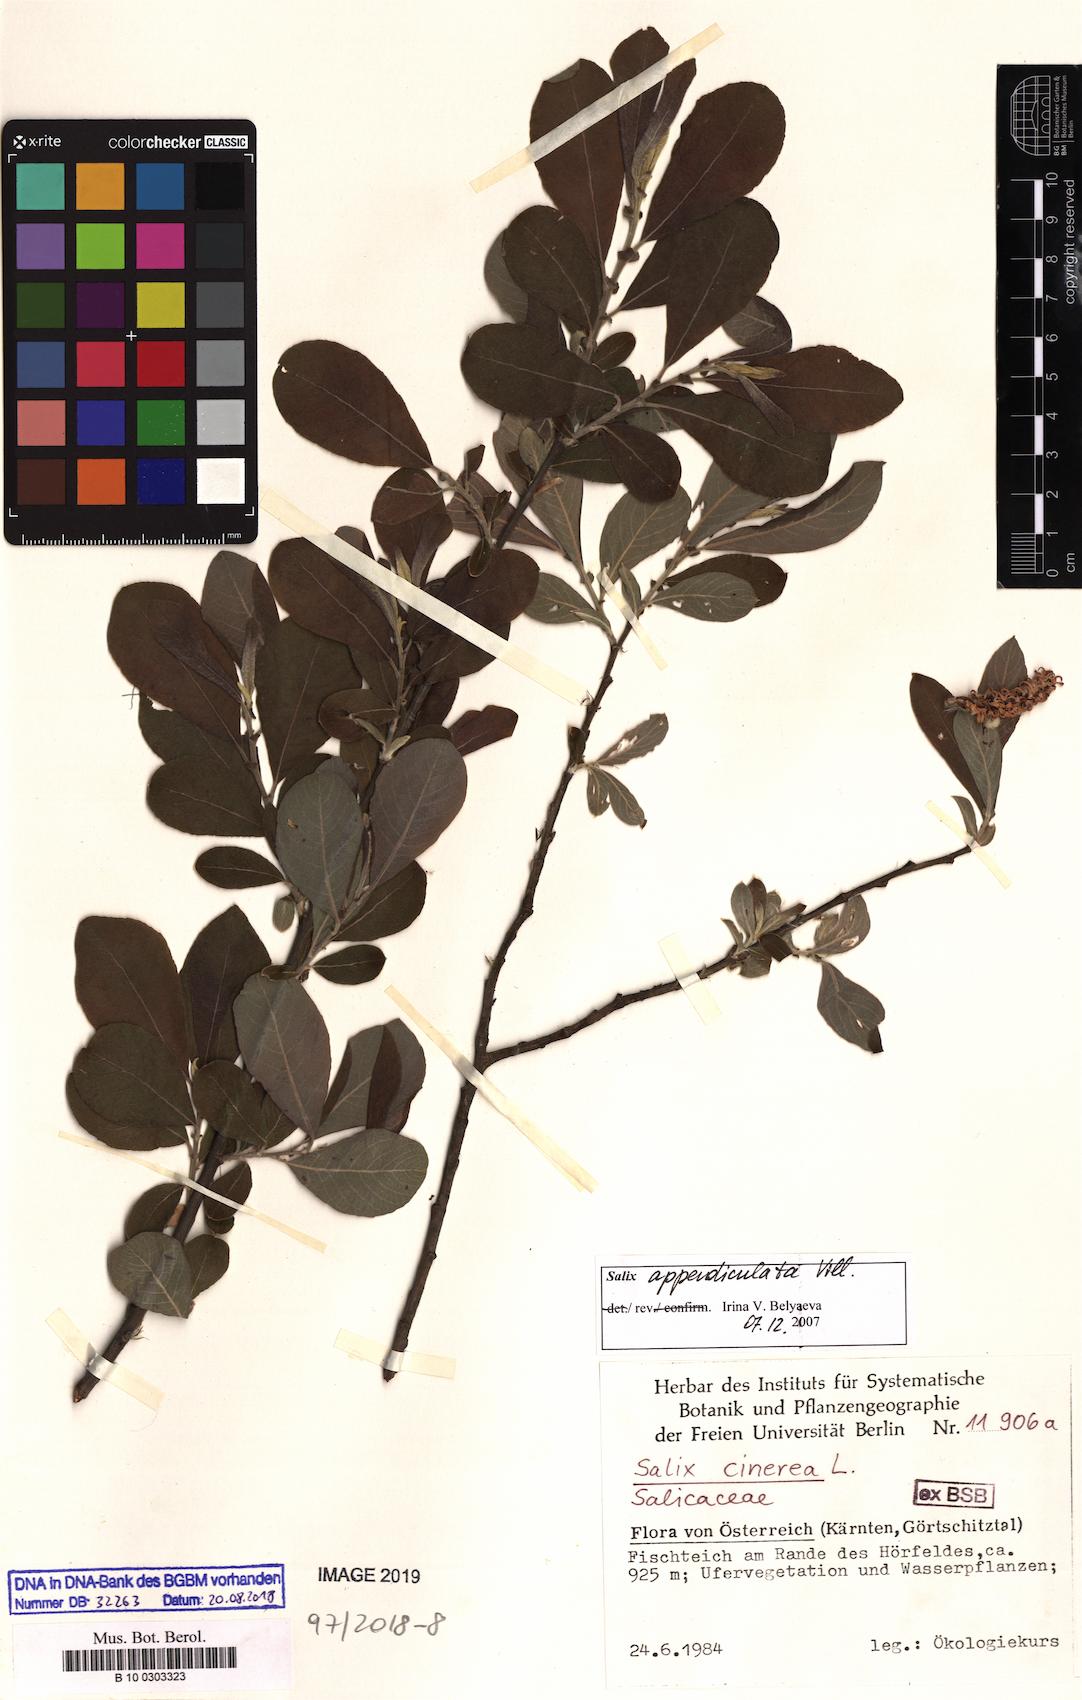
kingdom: Plantae
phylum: Tracheophyta
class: Magnoliopsida
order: Malpighiales
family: Salicaceae
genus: Salix
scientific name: Salix appendiculata
